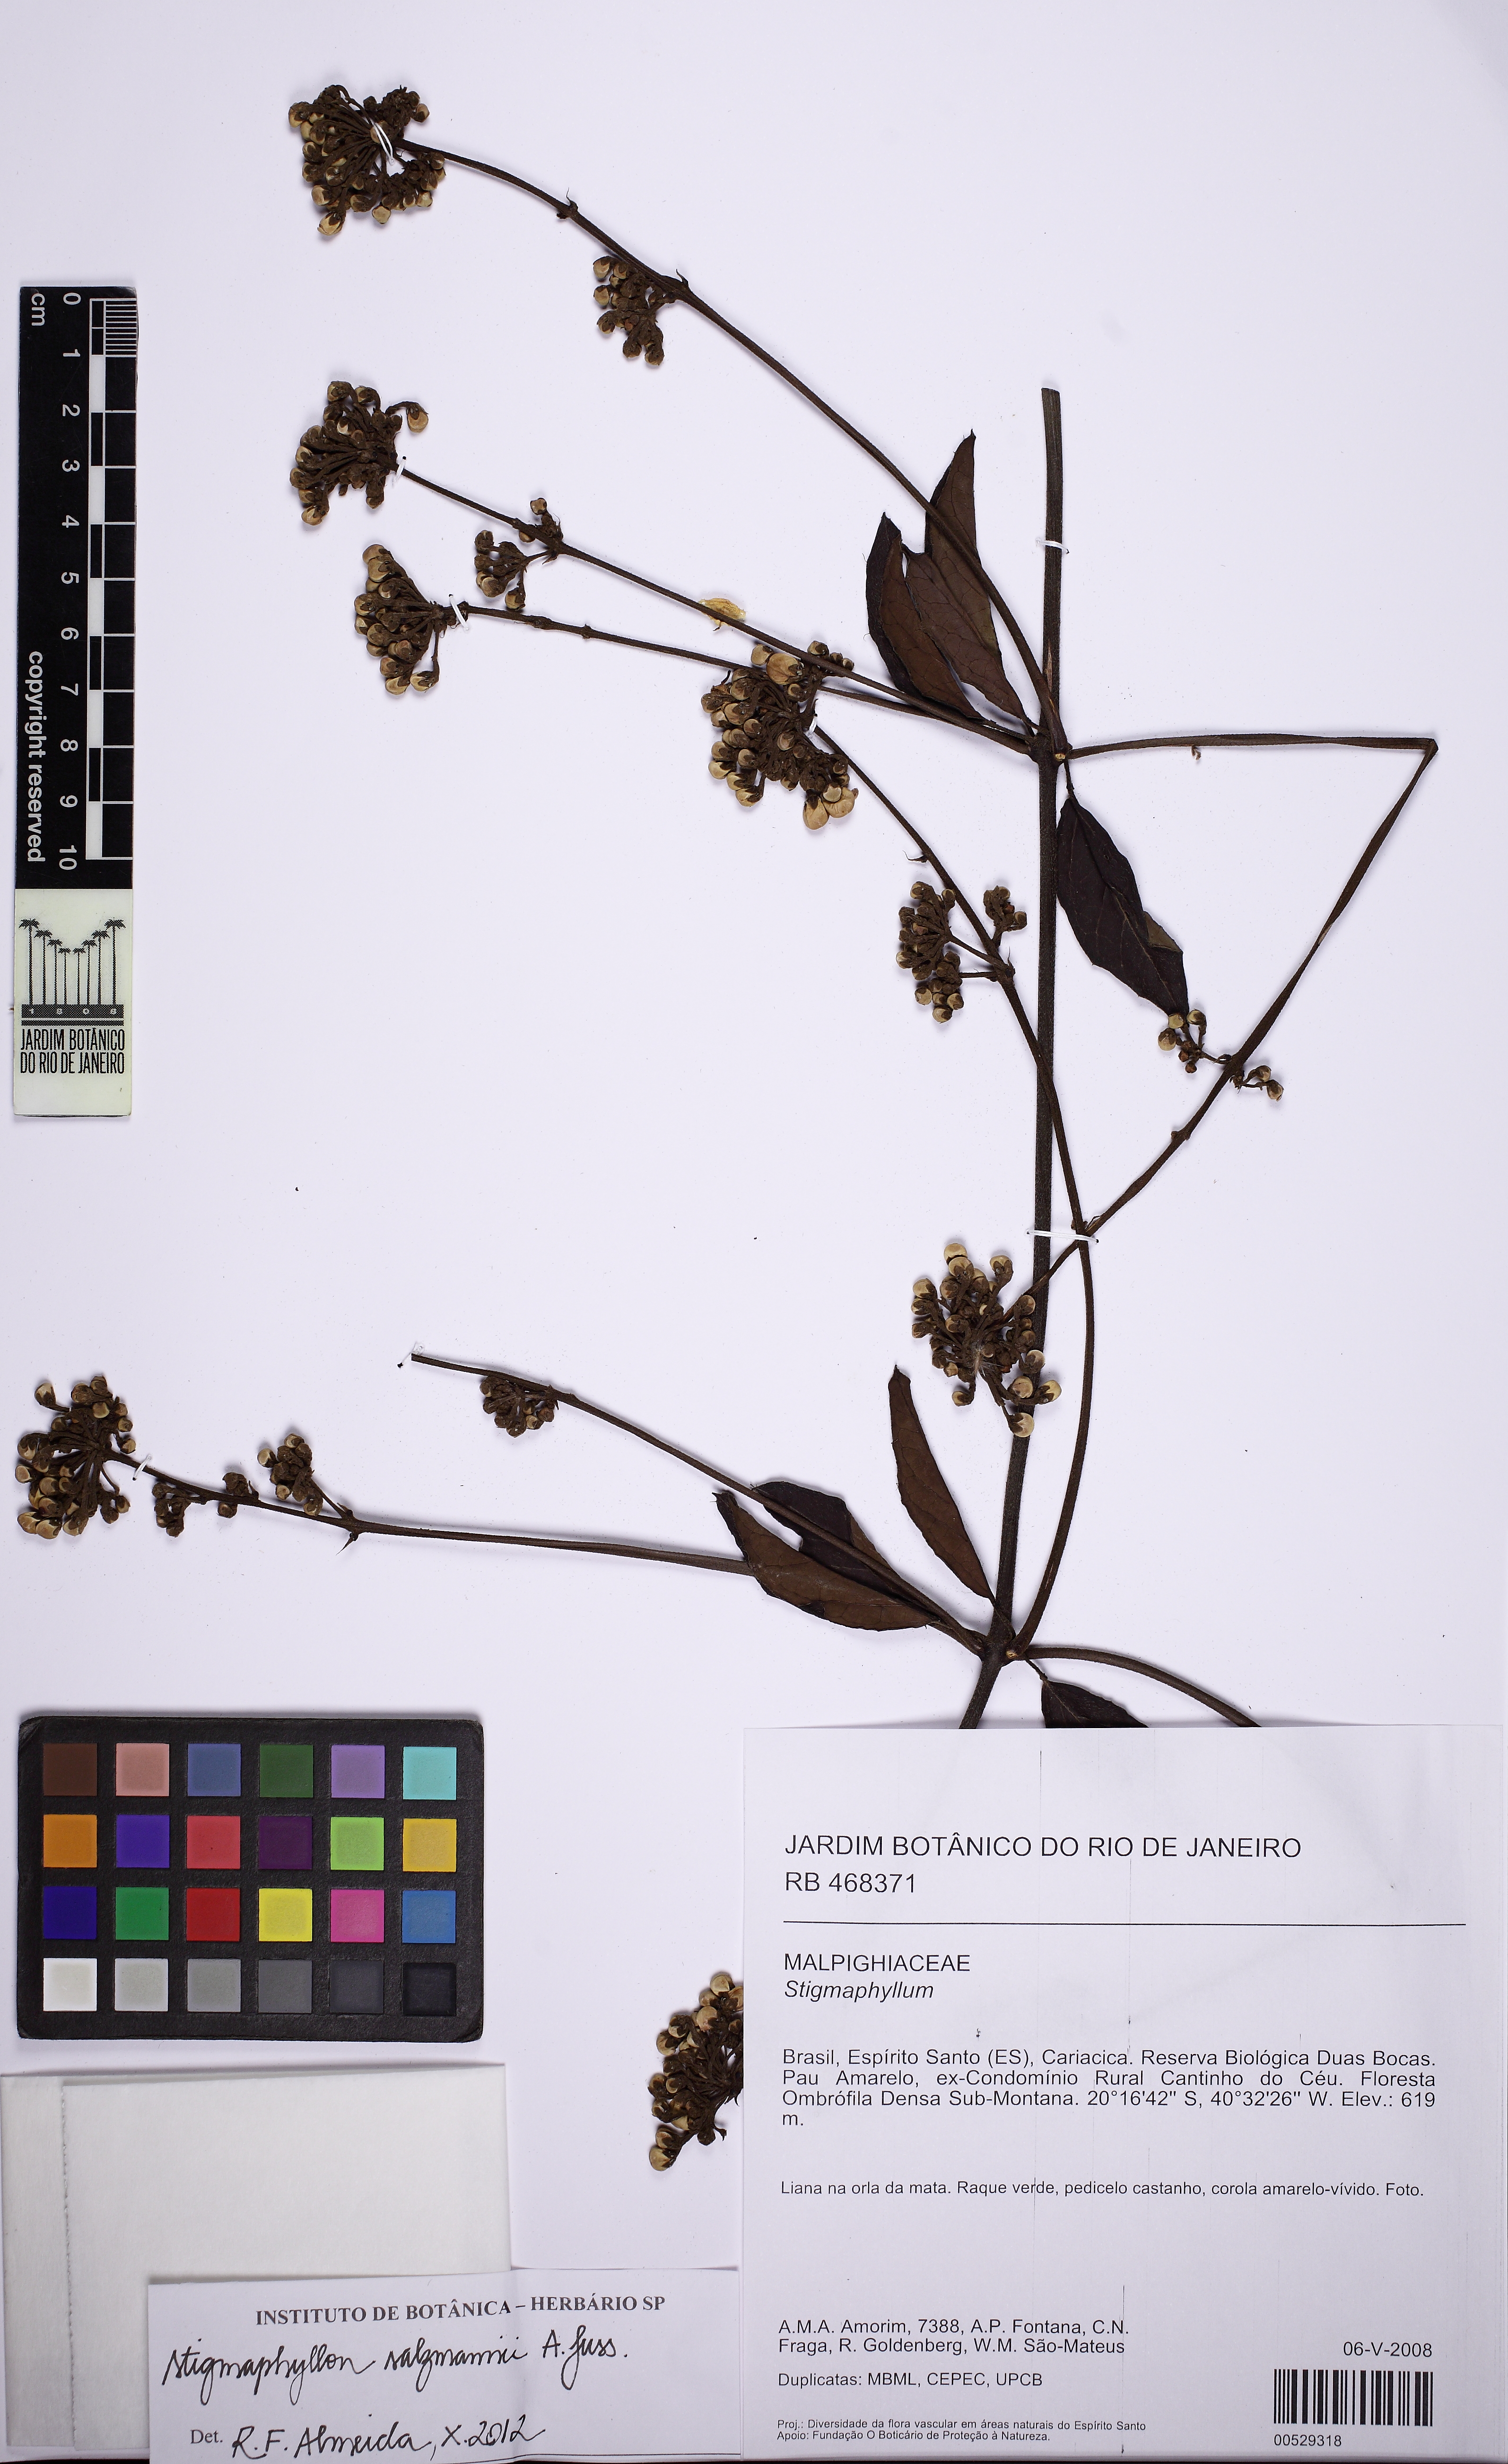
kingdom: Plantae
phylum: Tracheophyta
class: Magnoliopsida
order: Malpighiales
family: Malpighiaceae
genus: Stigmaphyllon
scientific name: Stigmaphyllon salzmannii
